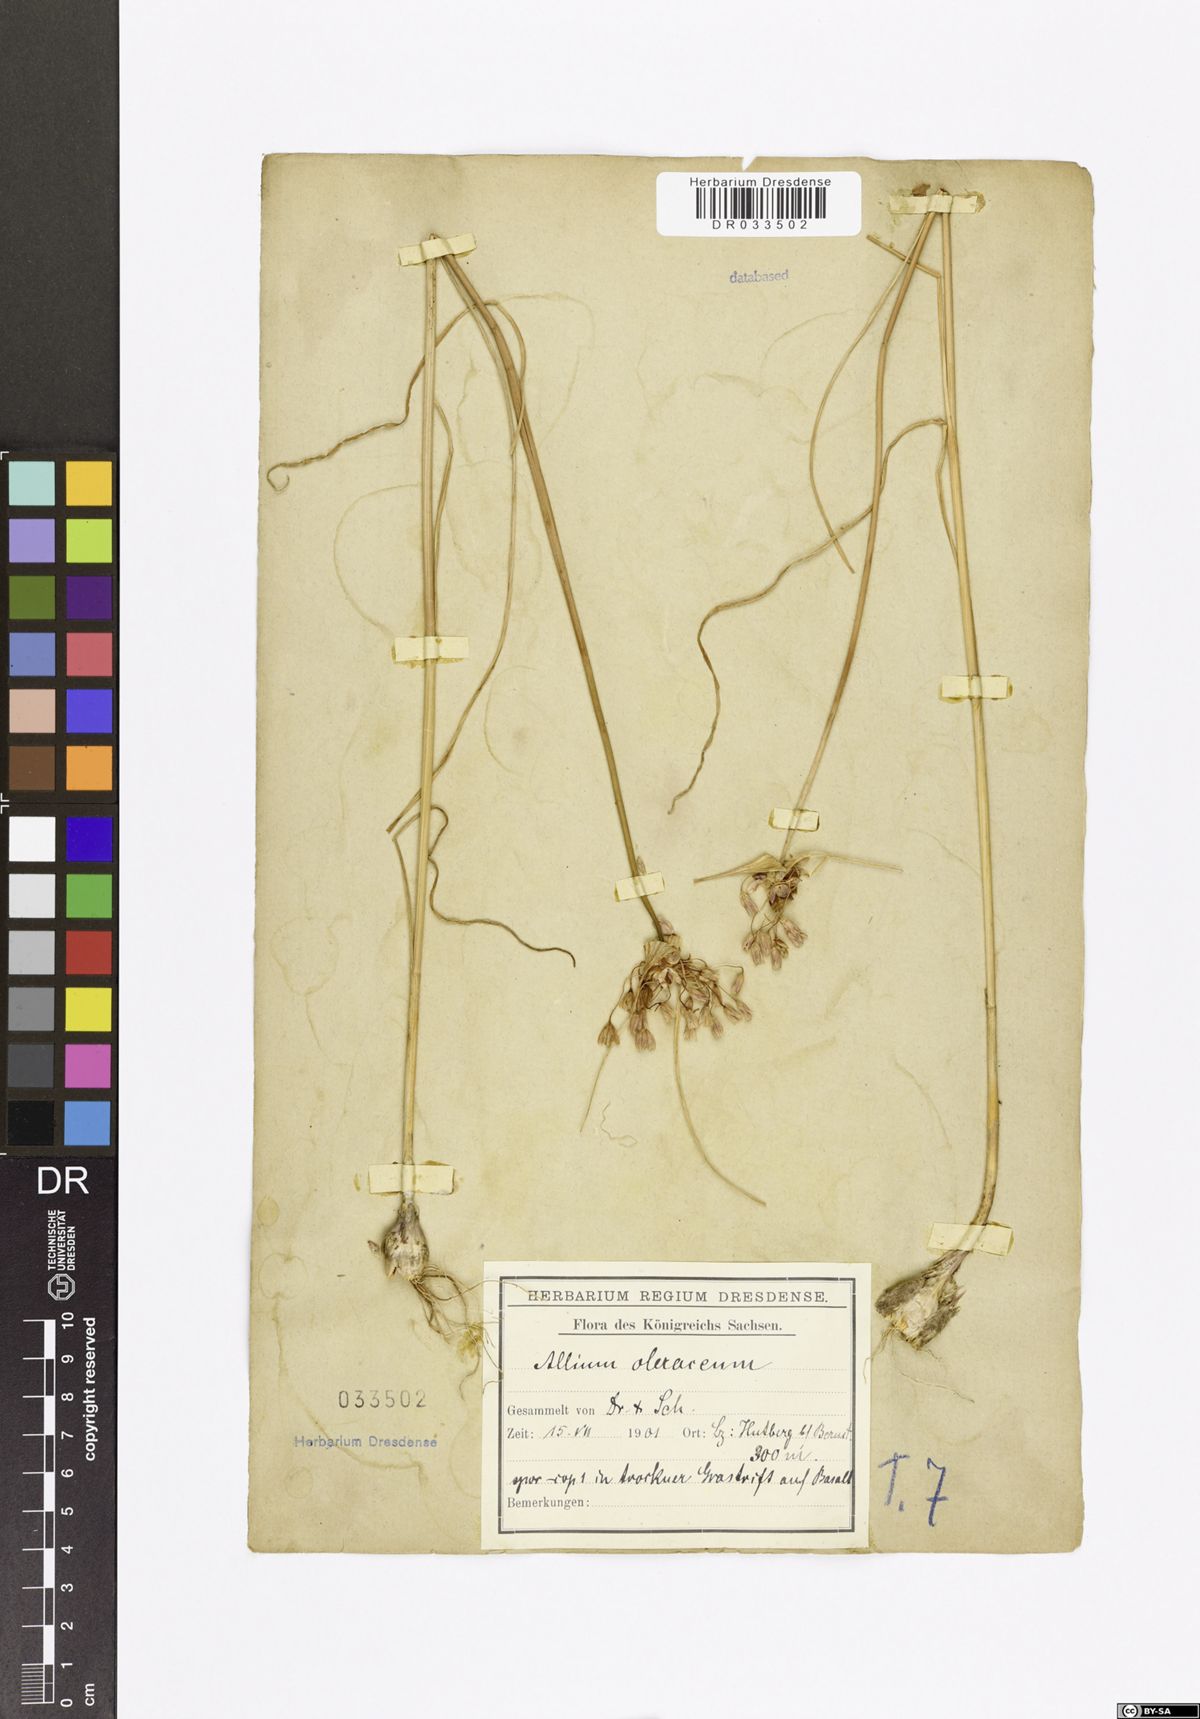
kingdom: Plantae
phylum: Tracheophyta
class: Liliopsida
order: Asparagales
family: Amaryllidaceae
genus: Allium
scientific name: Allium oleraceum
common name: Field garlic
